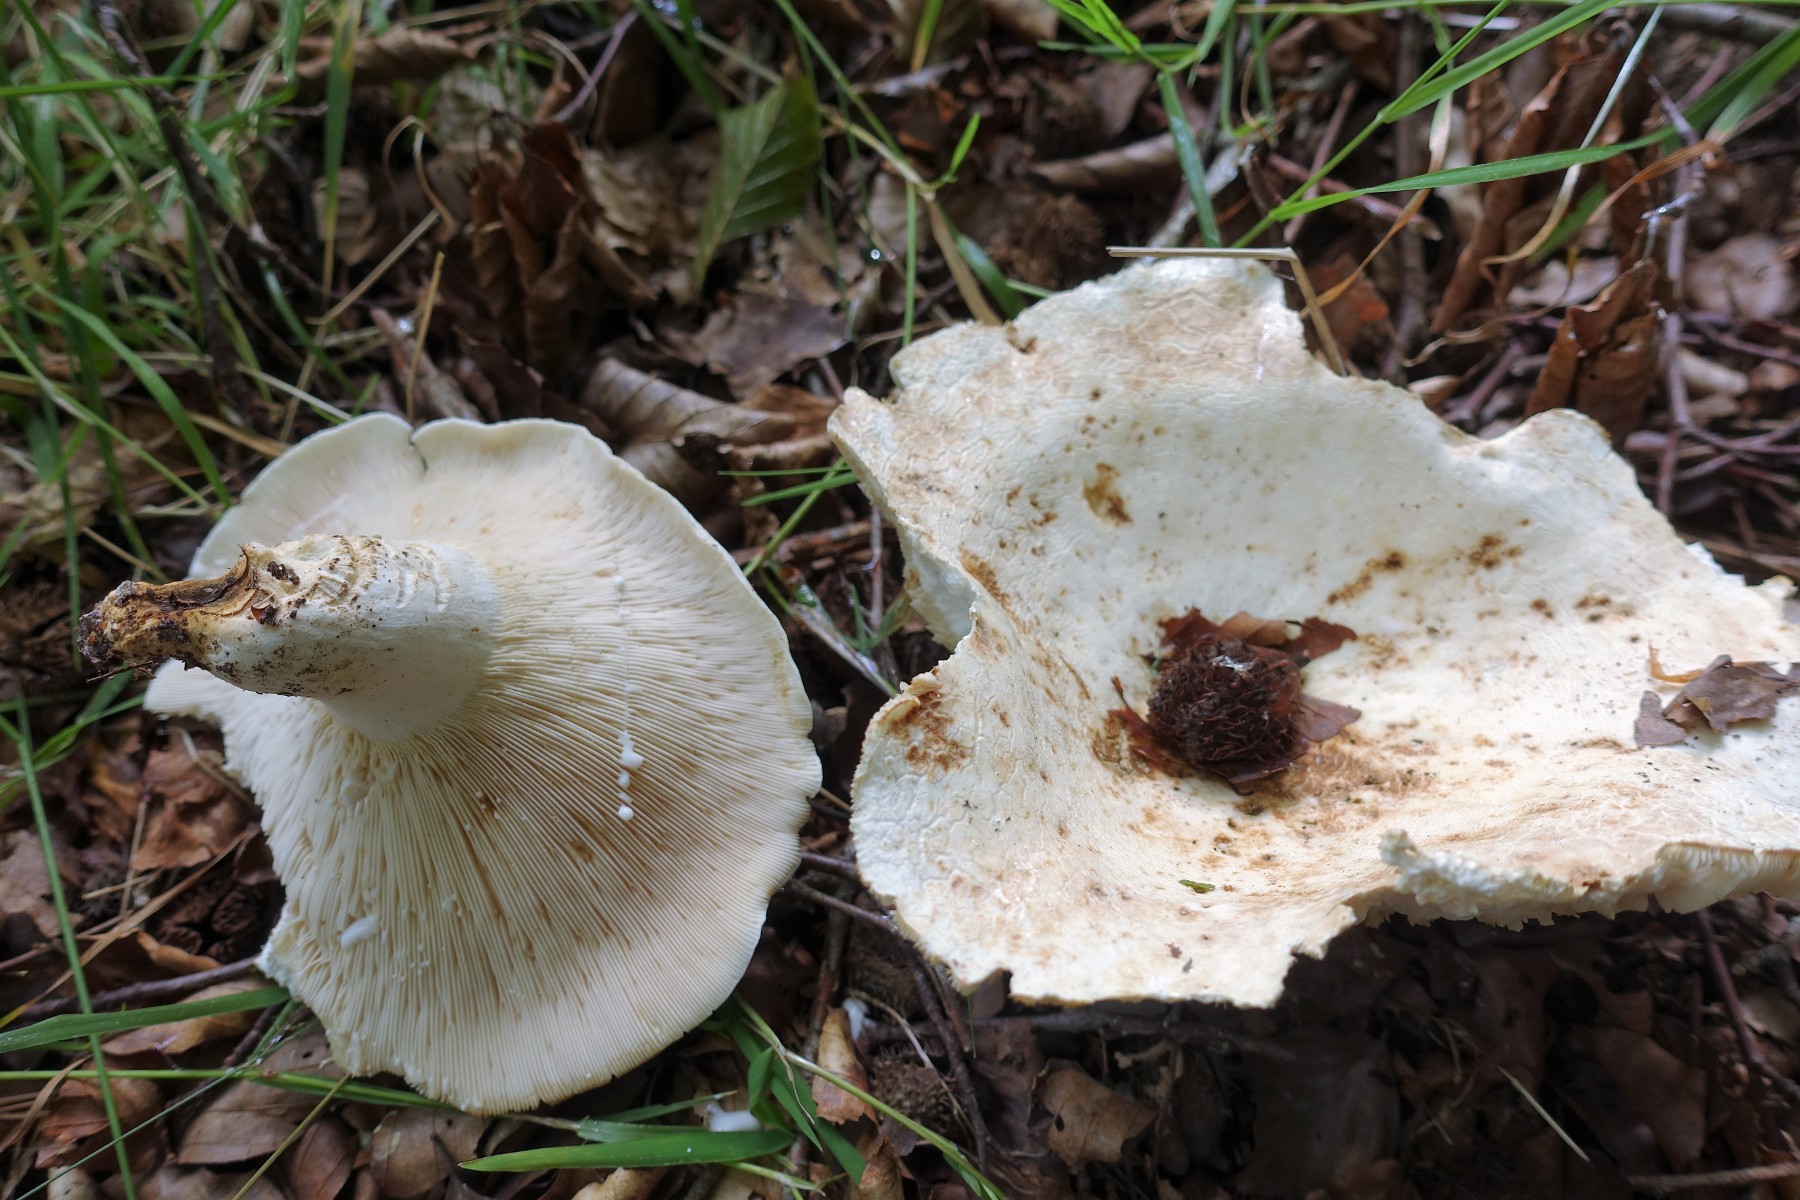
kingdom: Fungi
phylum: Basidiomycota
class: Agaricomycetes
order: Russulales
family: Russulaceae
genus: Lactifluus
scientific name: Lactifluus piperatus
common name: peber-mælkehat
